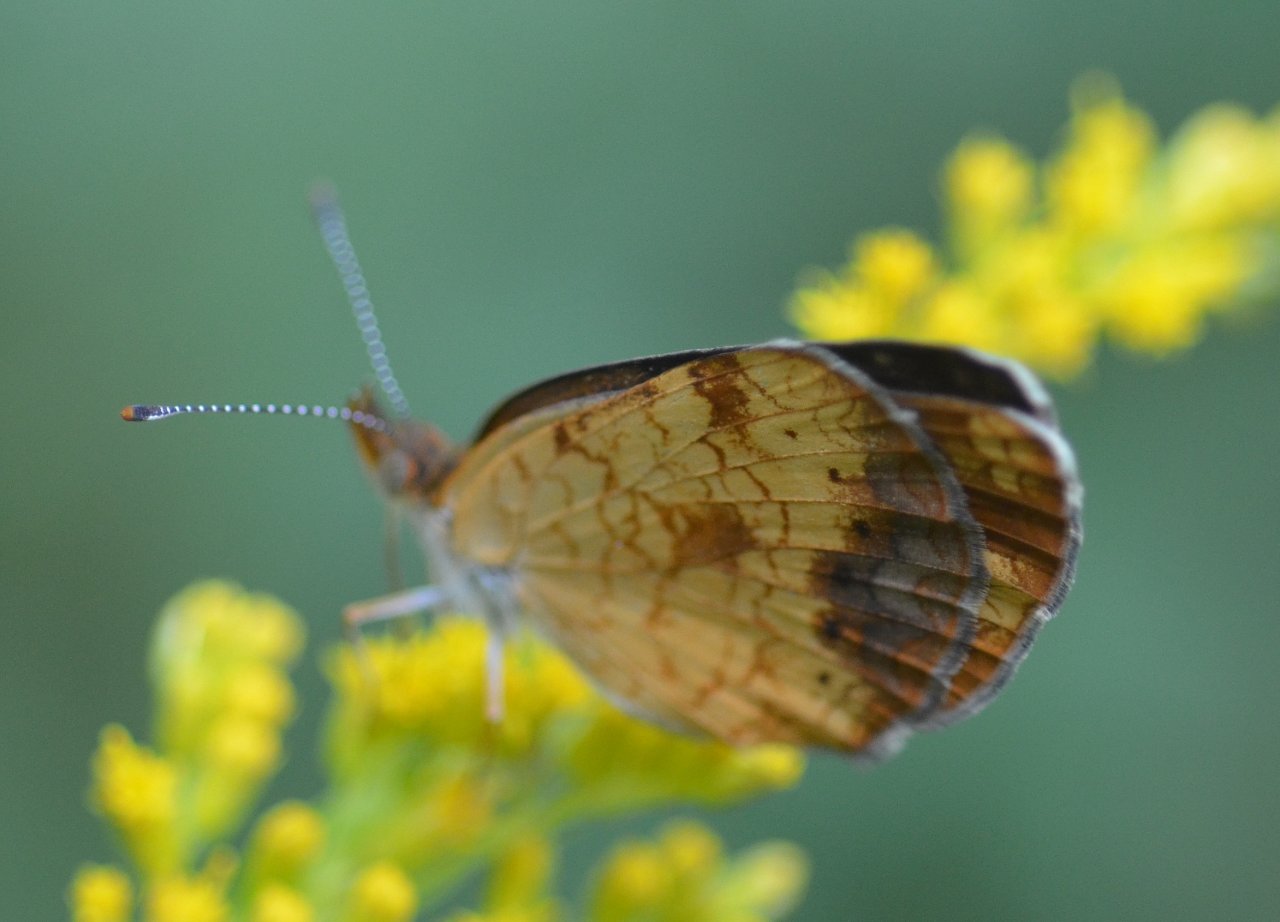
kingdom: Animalia
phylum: Arthropoda
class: Insecta
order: Lepidoptera
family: Nymphalidae
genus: Phyciodes
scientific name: Phyciodes tharos
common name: Northern Crescent
